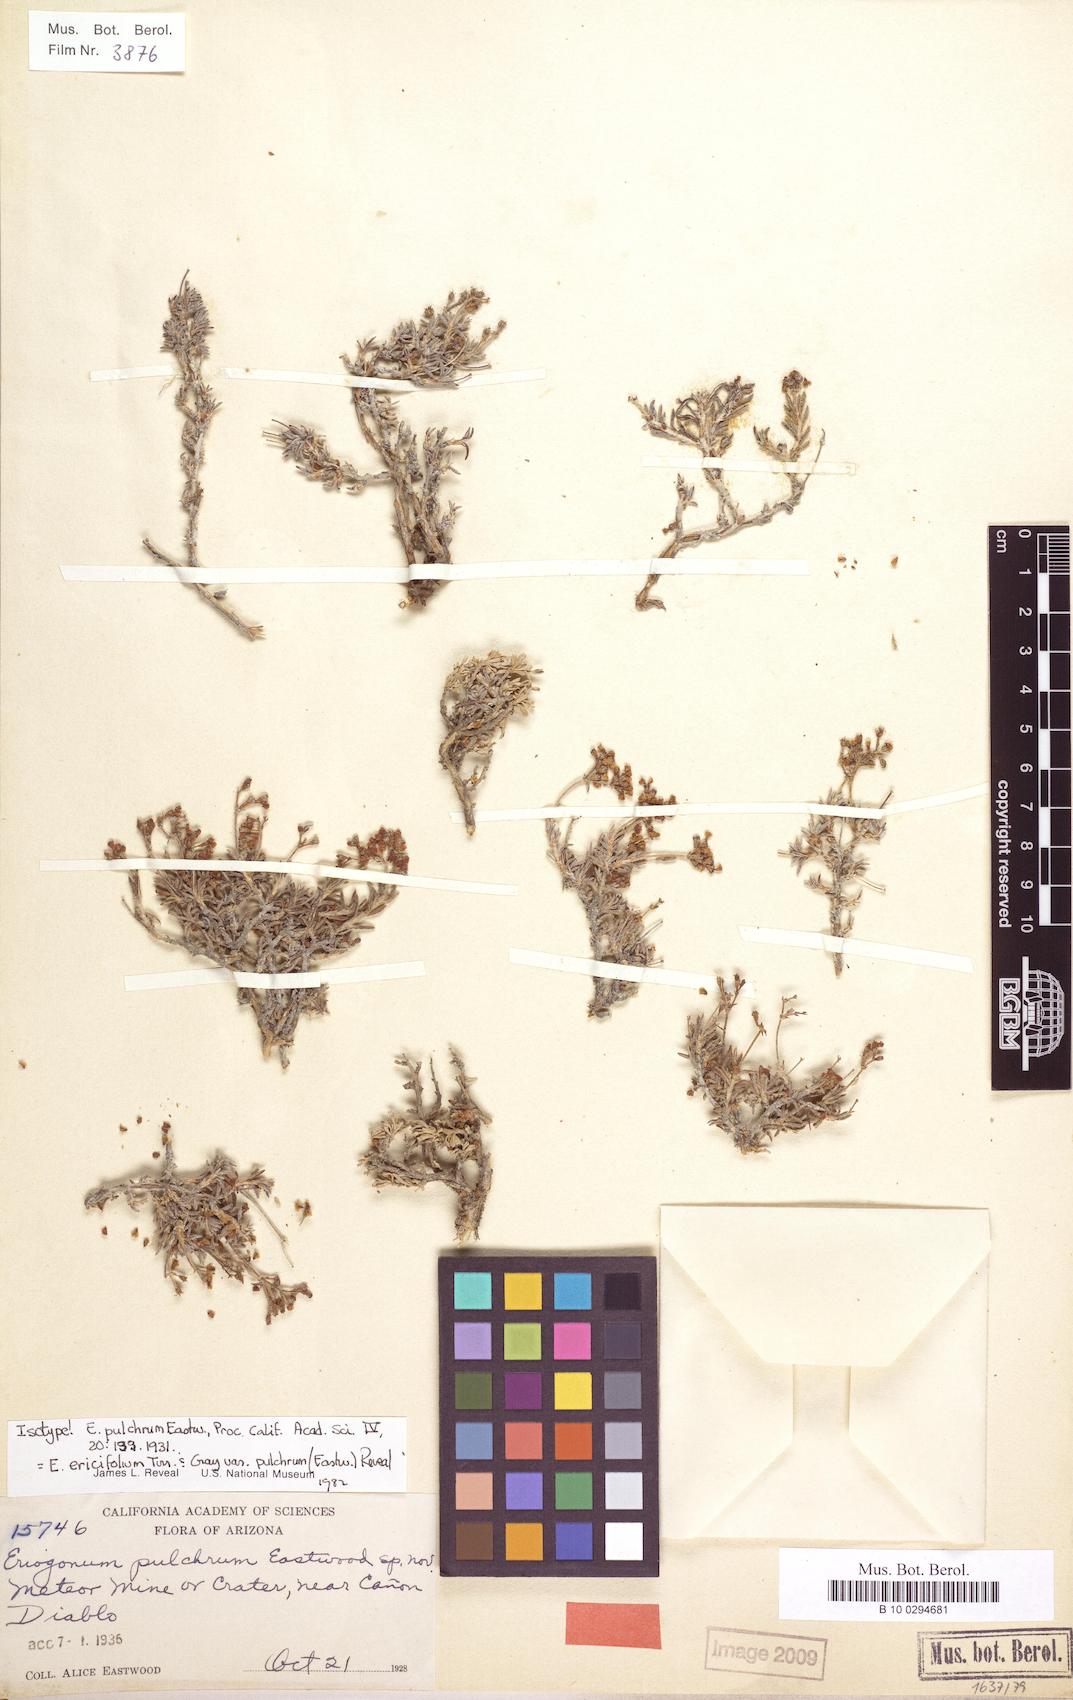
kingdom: Plantae
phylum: Tracheophyta
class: Magnoliopsida
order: Caryophyllales
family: Polygonaceae
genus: Eriogonum
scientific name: Eriogonum pulchrum
